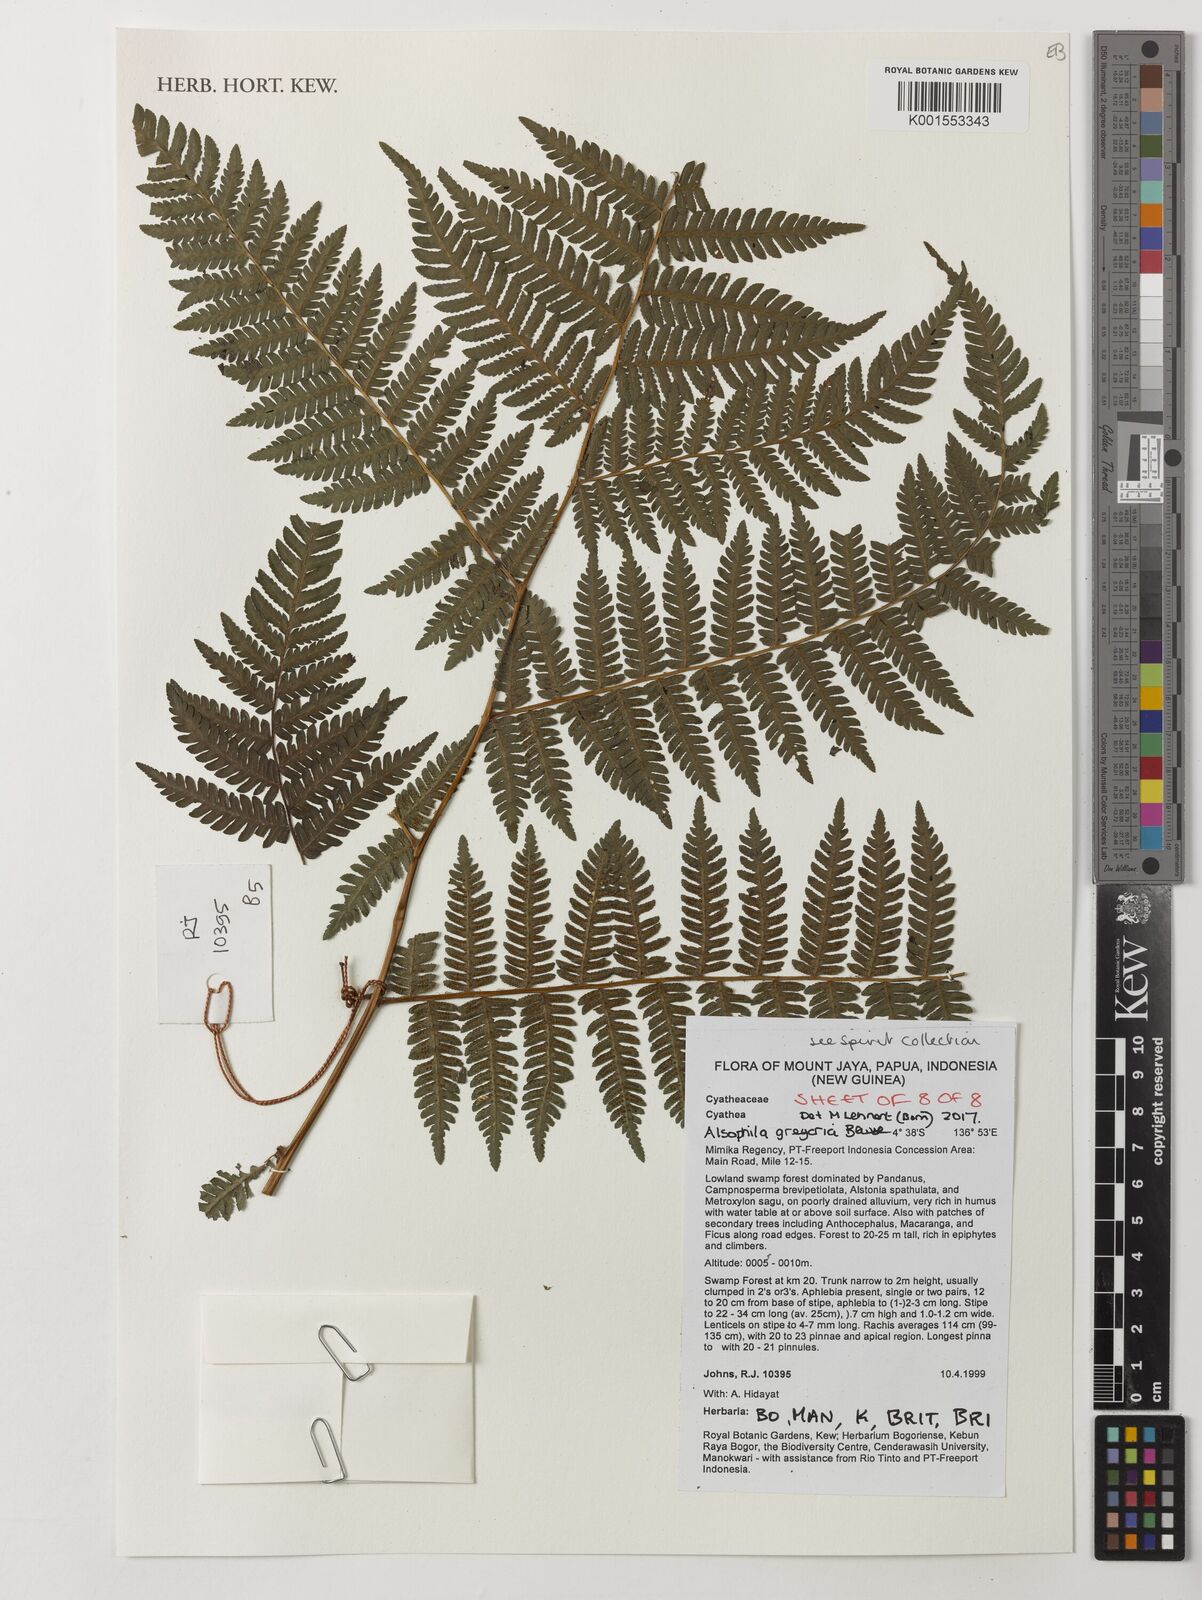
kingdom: Plantae
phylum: Tracheophyta
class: Polypodiopsida
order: Cyatheales
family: Cyatheaceae
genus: Alsophila
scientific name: Alsophila gregaria
